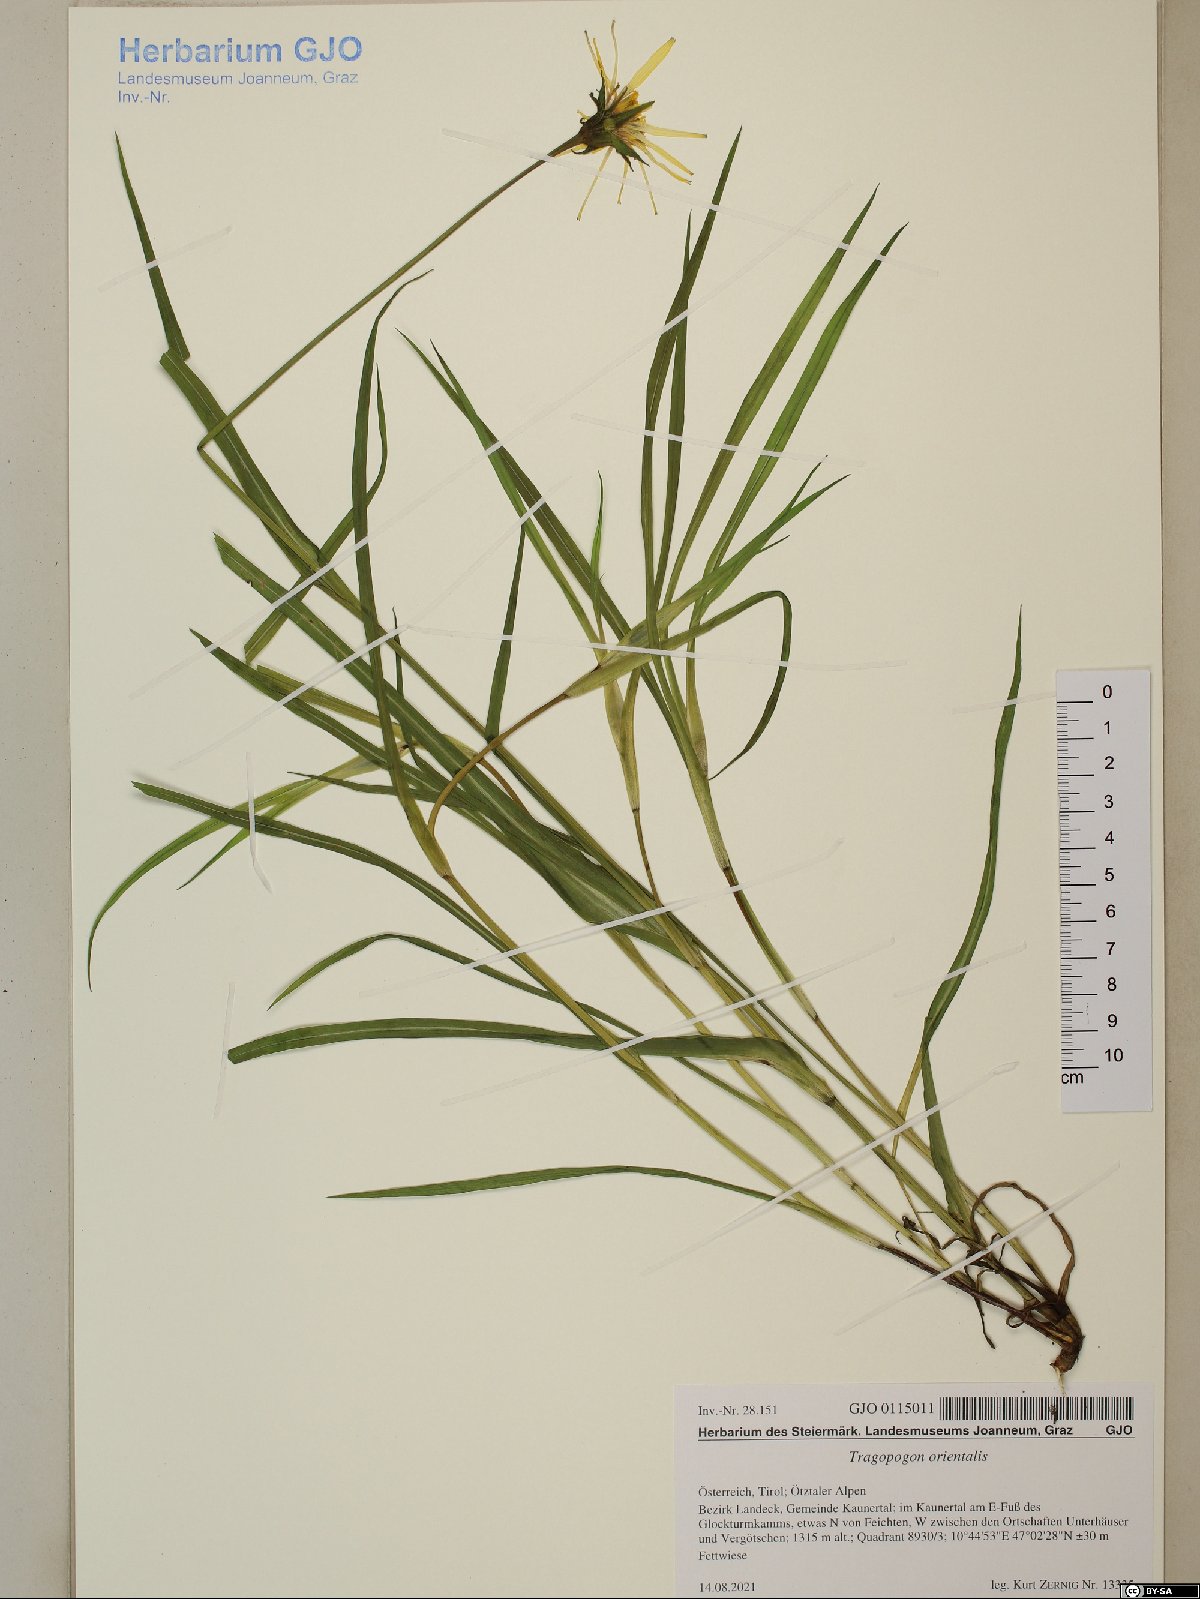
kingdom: Plantae
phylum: Tracheophyta
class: Magnoliopsida
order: Asterales
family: Asteraceae
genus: Tragopogon
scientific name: Tragopogon orientalis
